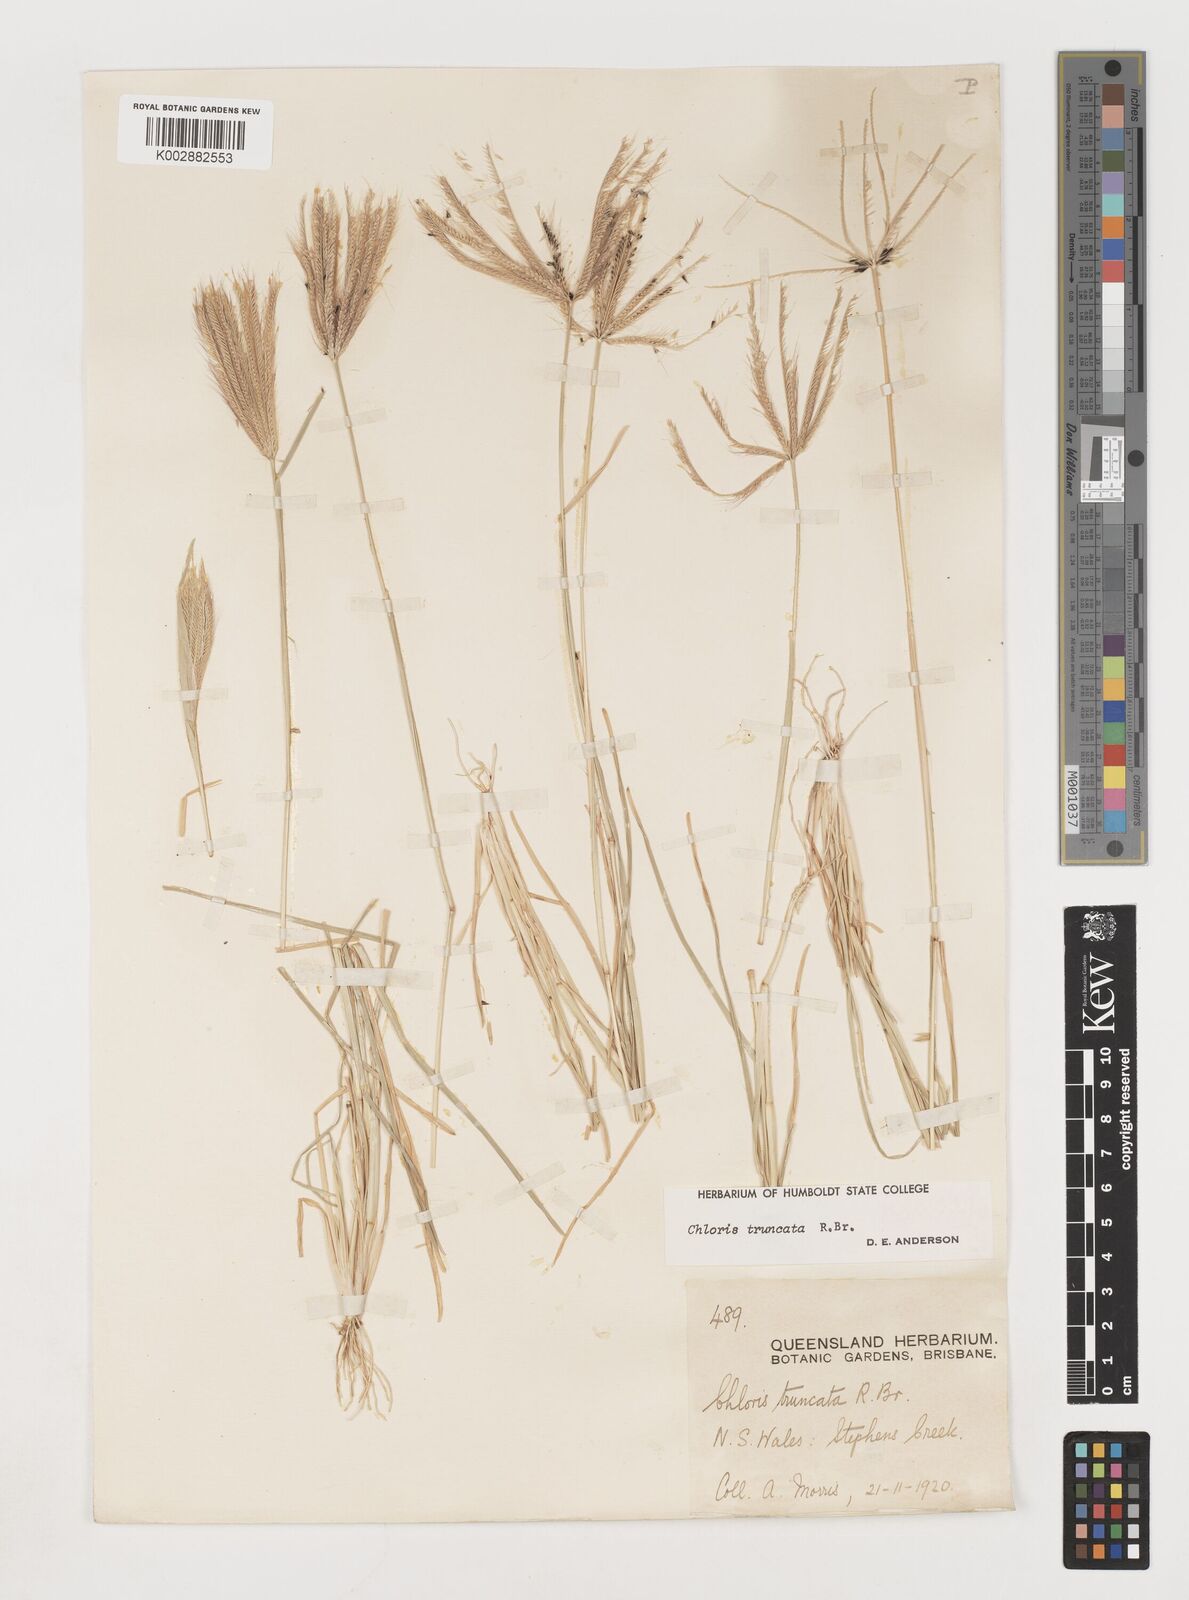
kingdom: Plantae
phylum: Tracheophyta
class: Liliopsida
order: Poales
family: Poaceae
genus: Chloris
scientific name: Chloris truncata
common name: Windmill-grass
